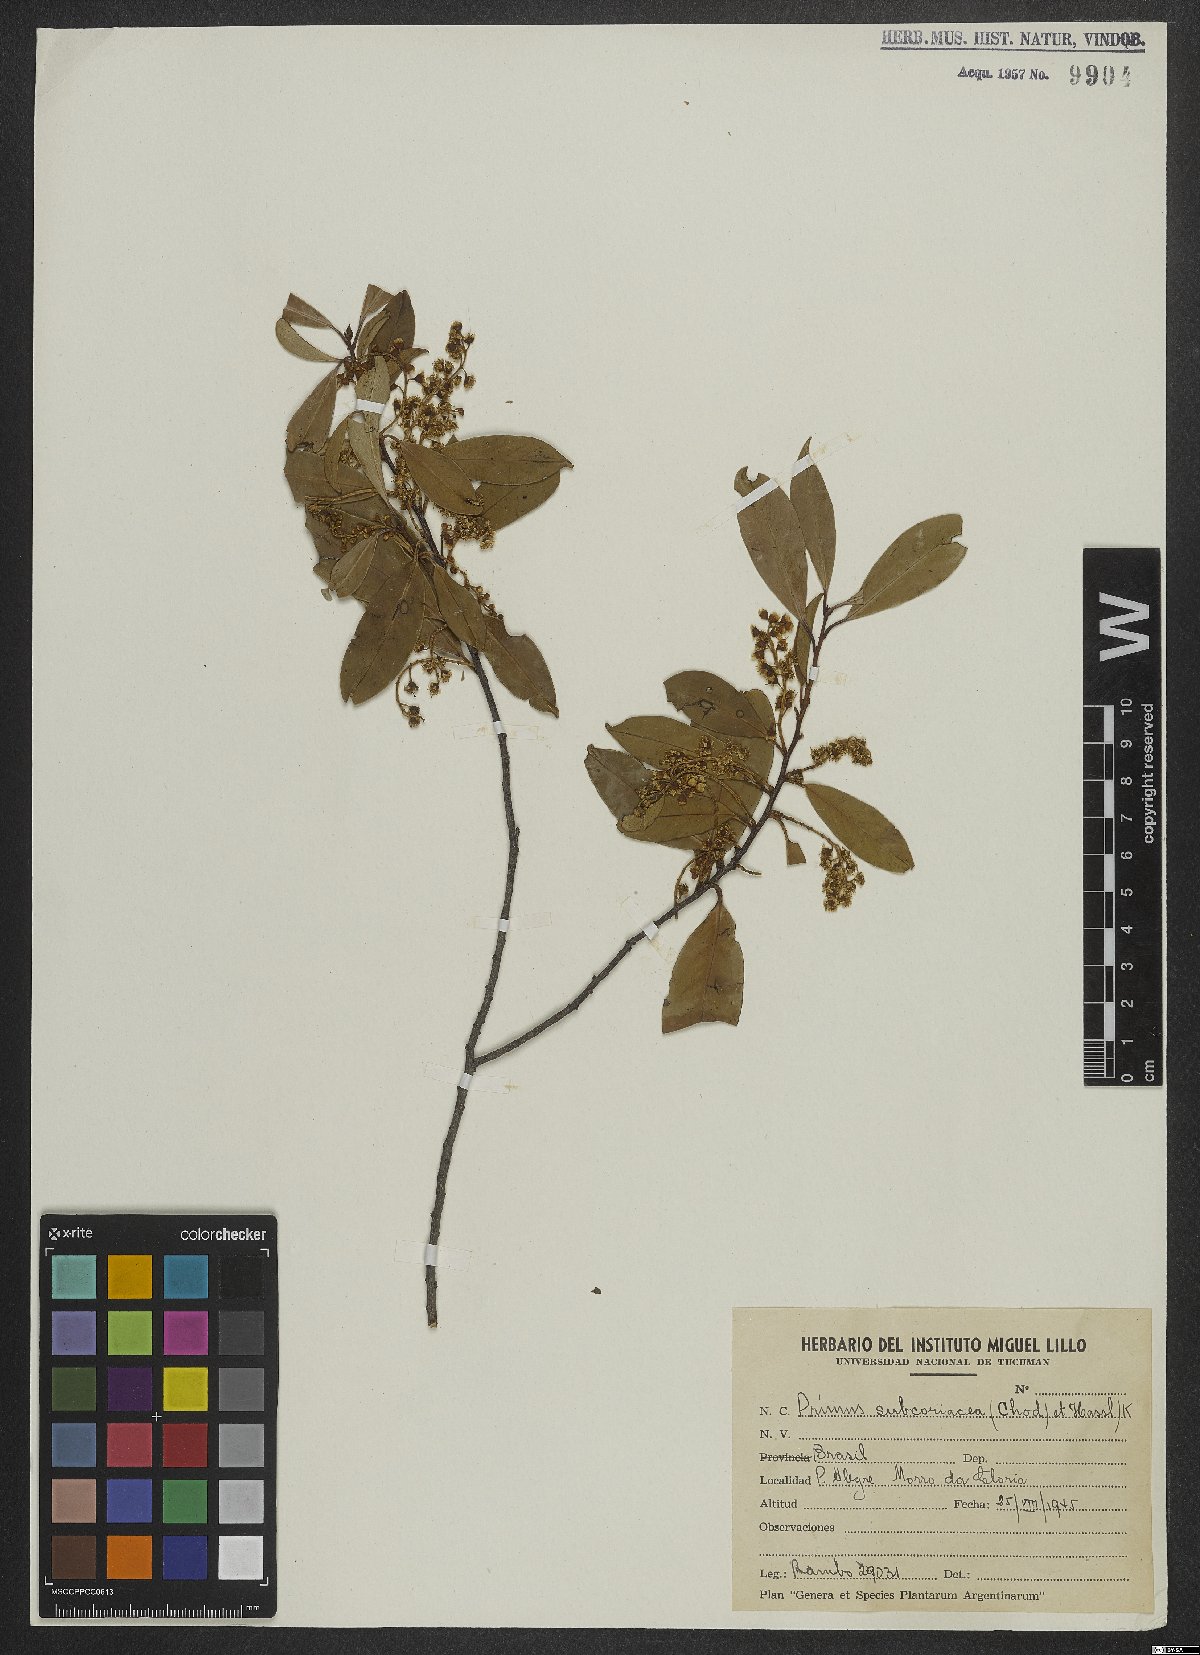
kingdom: Plantae
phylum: Tracheophyta
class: Magnoliopsida
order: Rosales
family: Rosaceae
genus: Prunus
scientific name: Prunus subcoriacea
